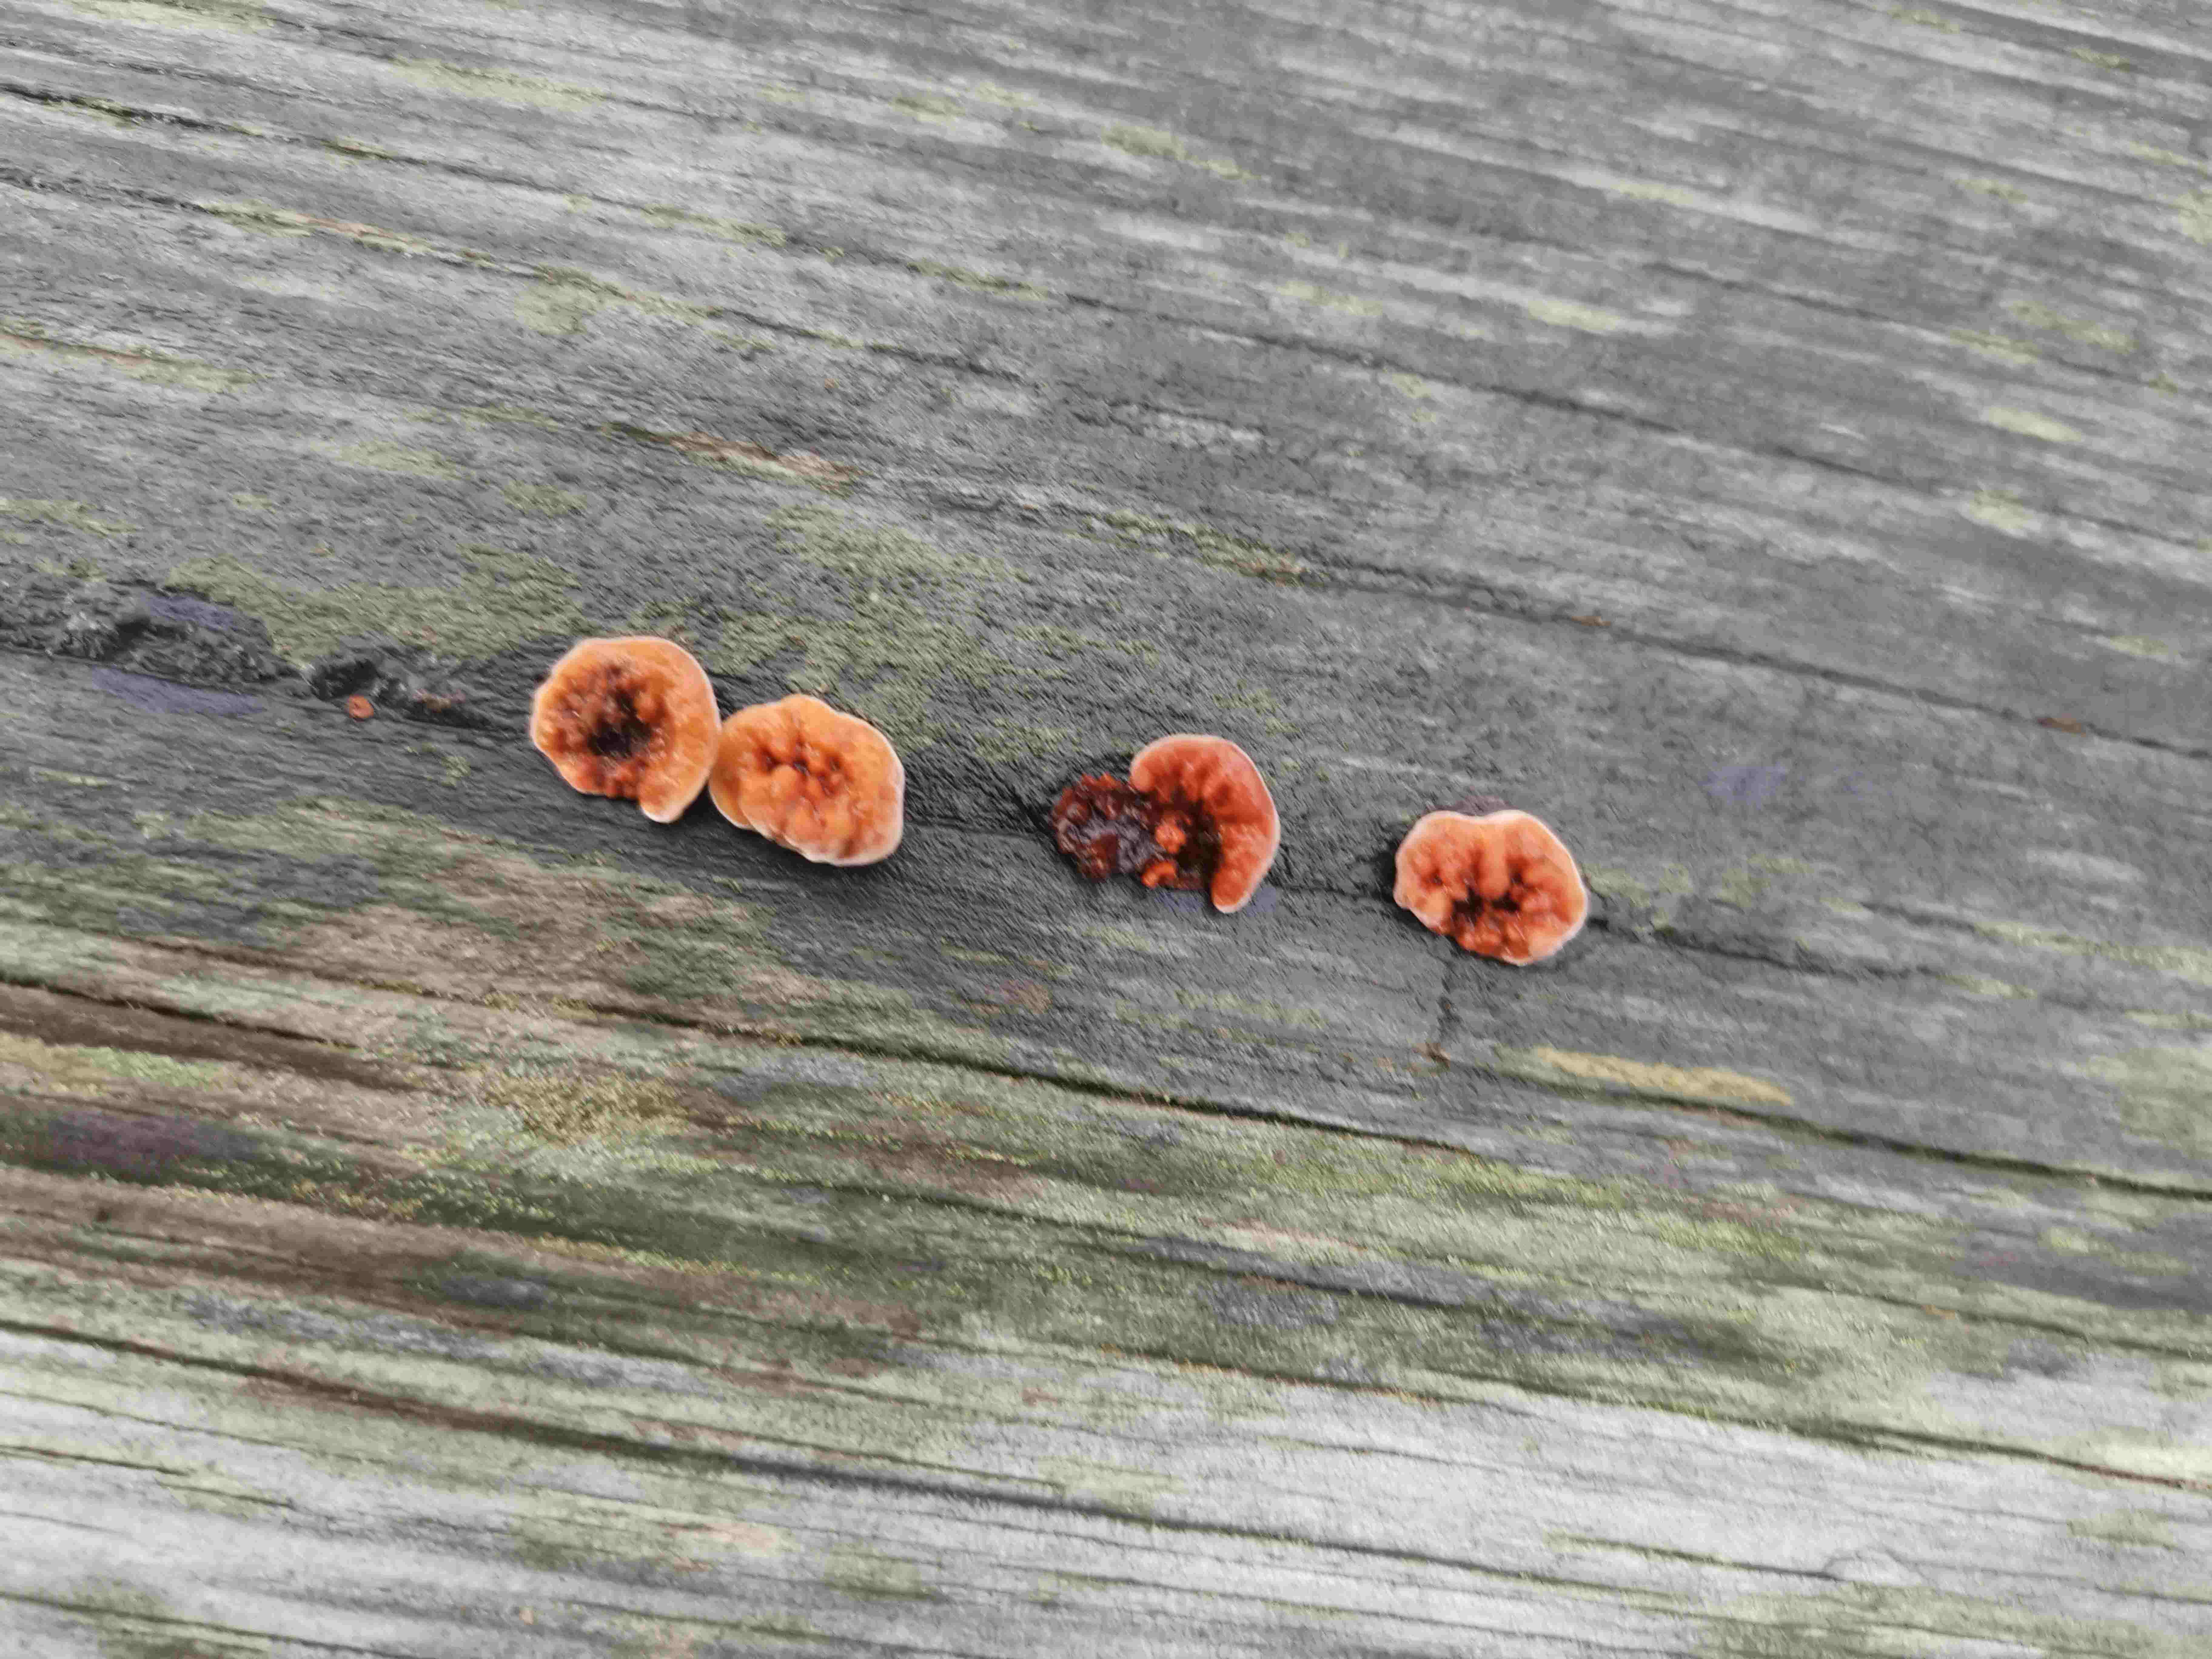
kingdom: Fungi
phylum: Basidiomycota
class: Agaricomycetes
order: Gloeophyllales
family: Gloeophyllaceae
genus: Gloeophyllum
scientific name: Gloeophyllum
